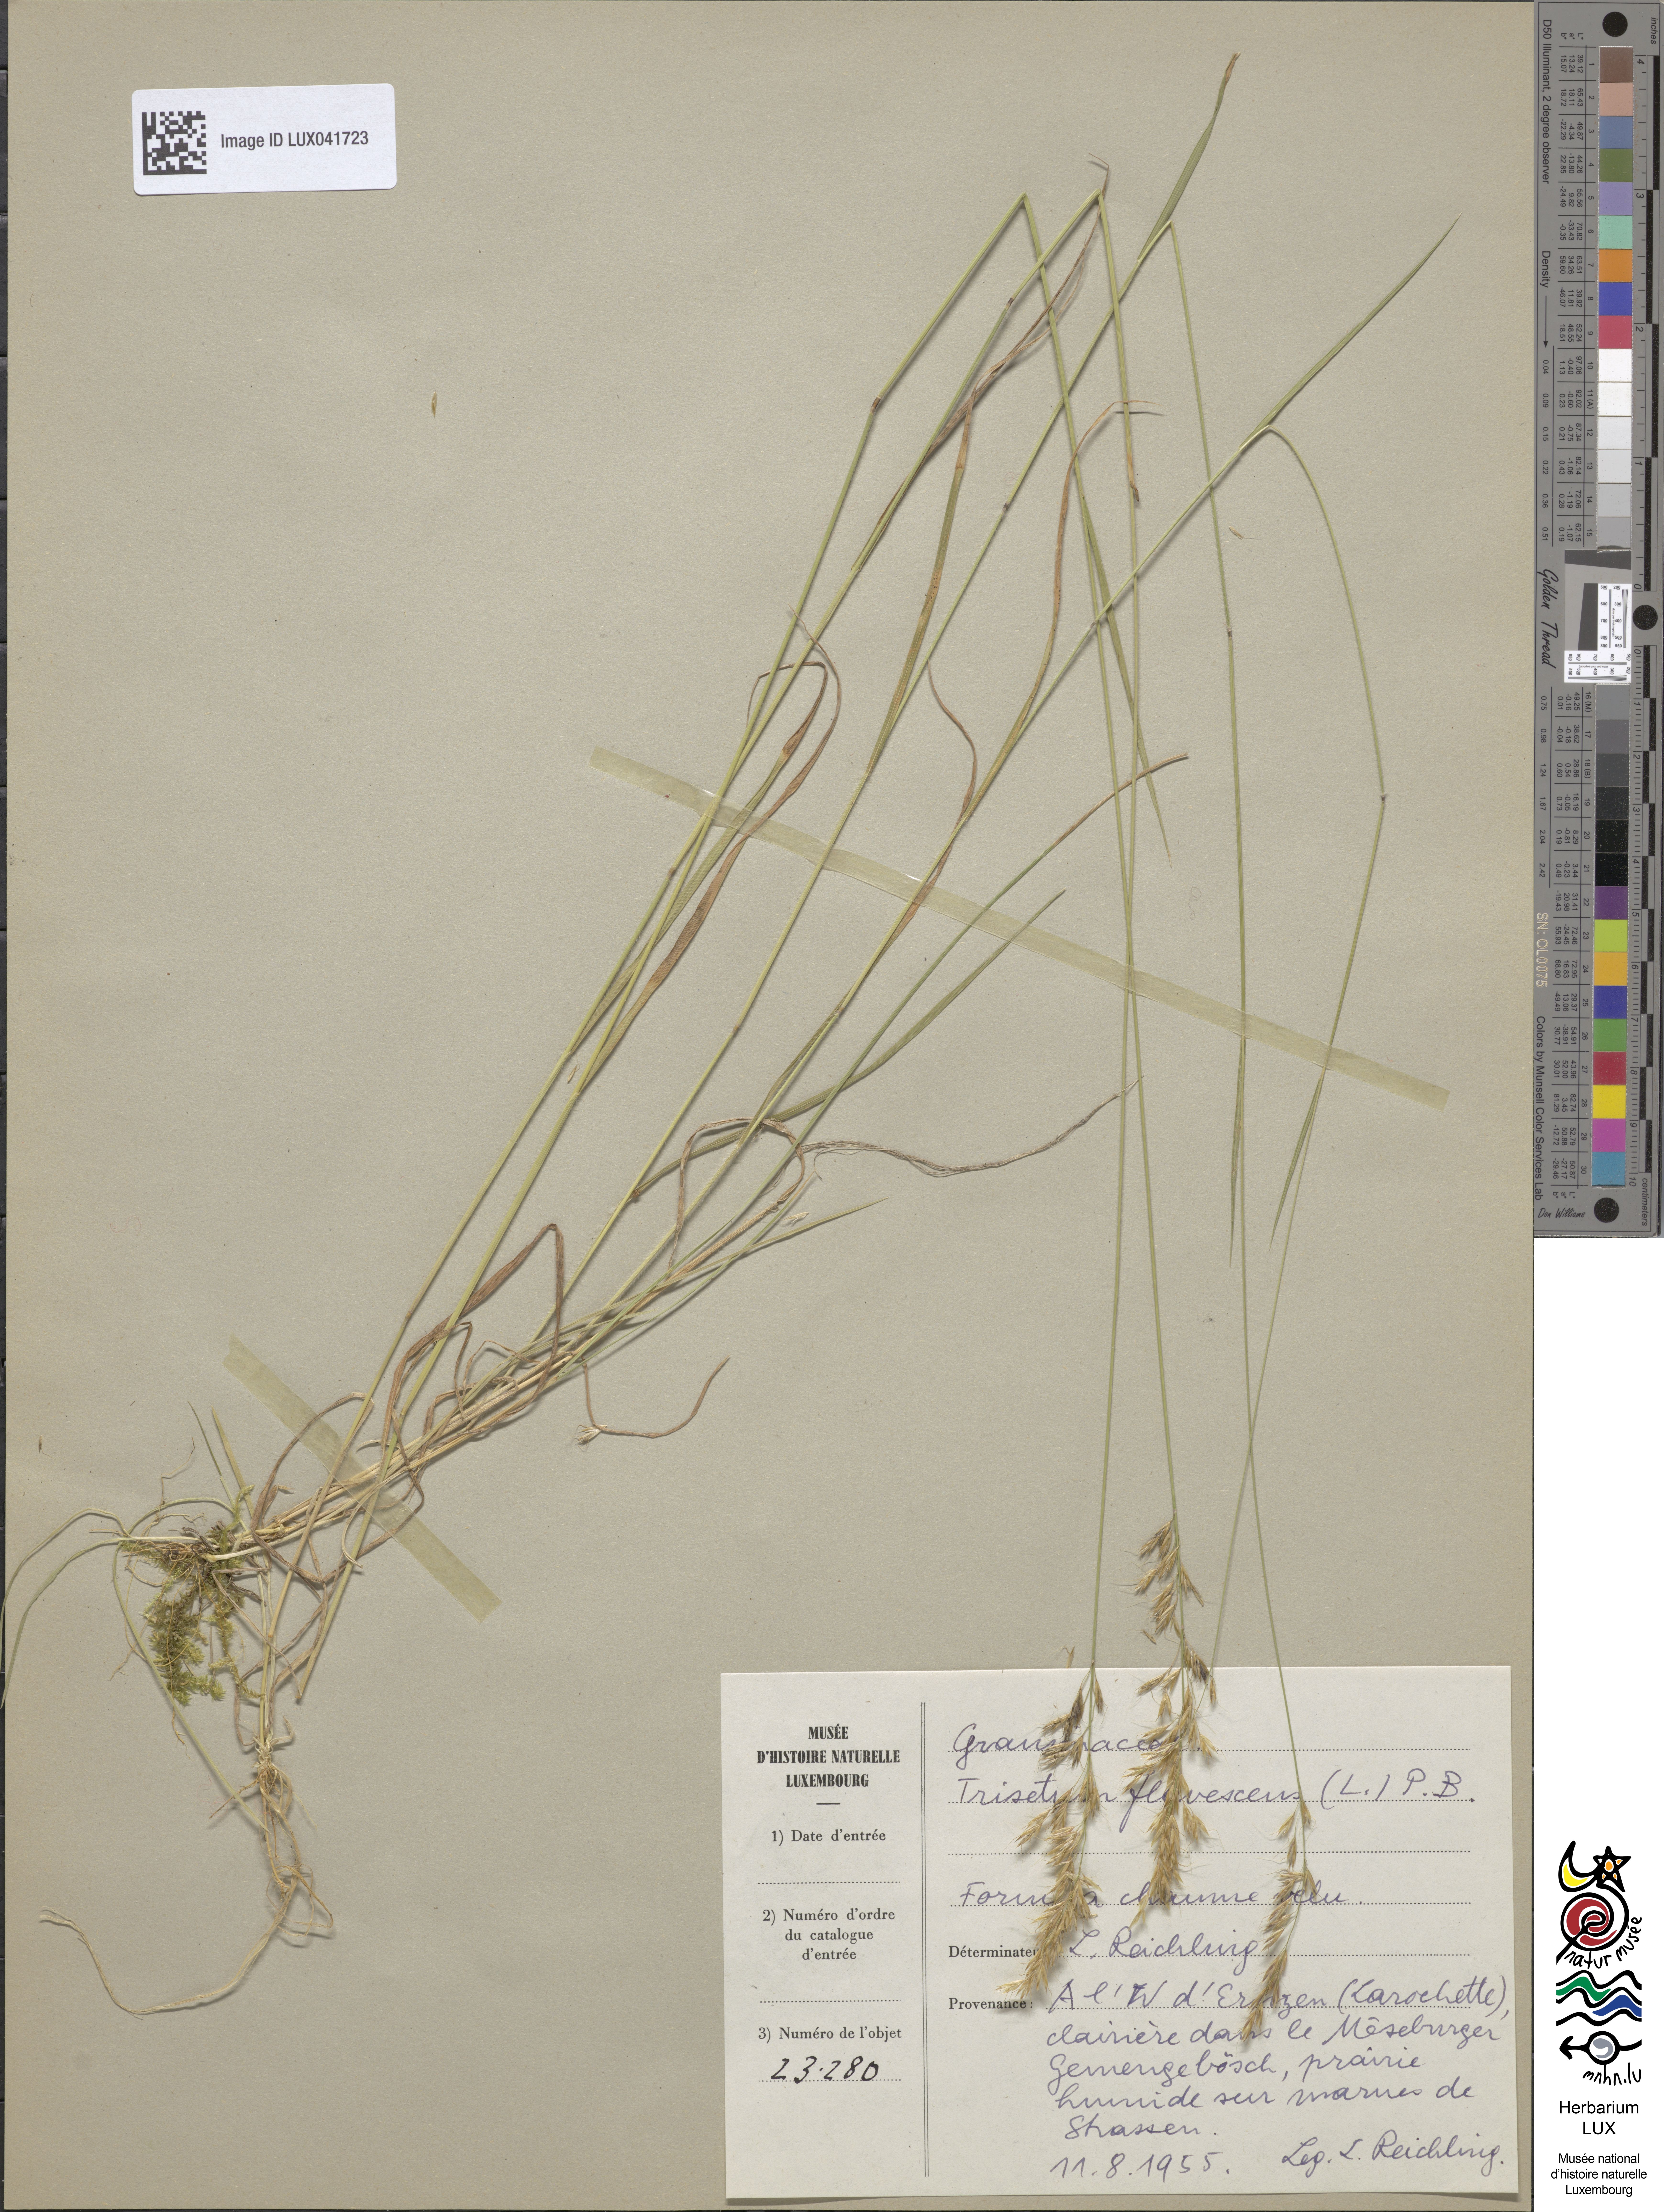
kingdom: Plantae
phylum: Tracheophyta
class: Liliopsida
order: Poales
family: Poaceae
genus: Trisetum
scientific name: Trisetum flavescens
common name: Yellow oat-grass
